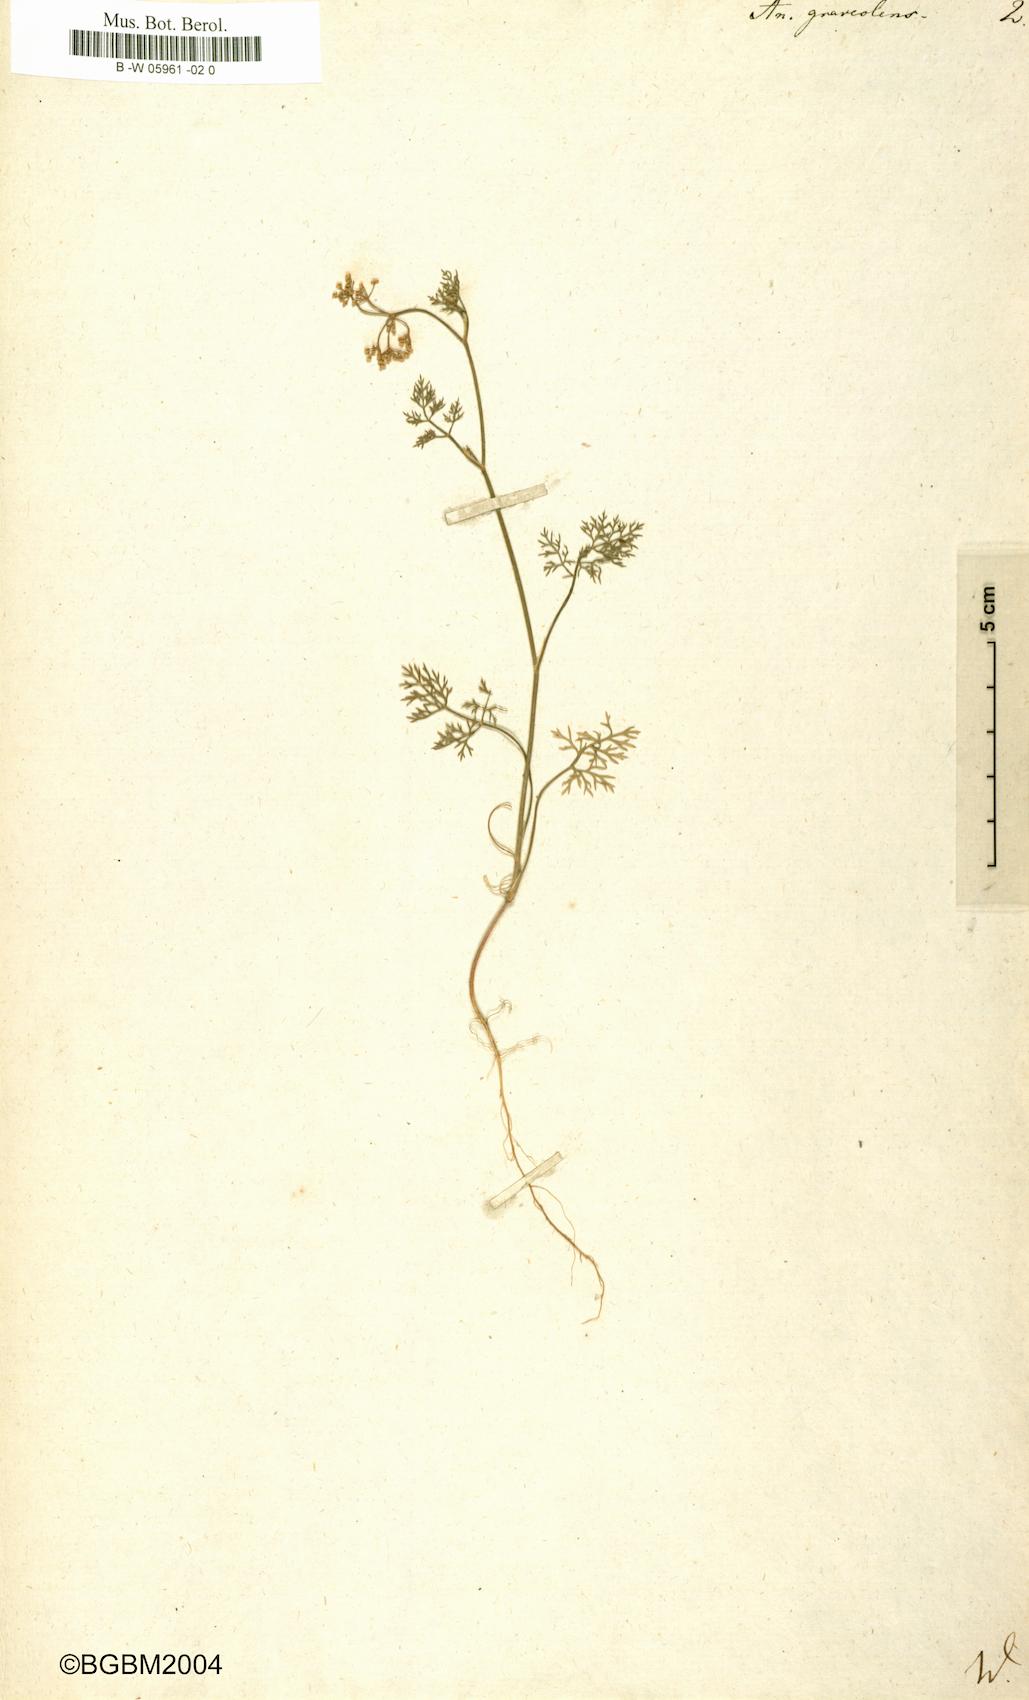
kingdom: Plantae
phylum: Tracheophyta
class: Magnoliopsida
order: Apiales
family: Apiaceae
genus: Anethum
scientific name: Anethum graveolens
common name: Dill
